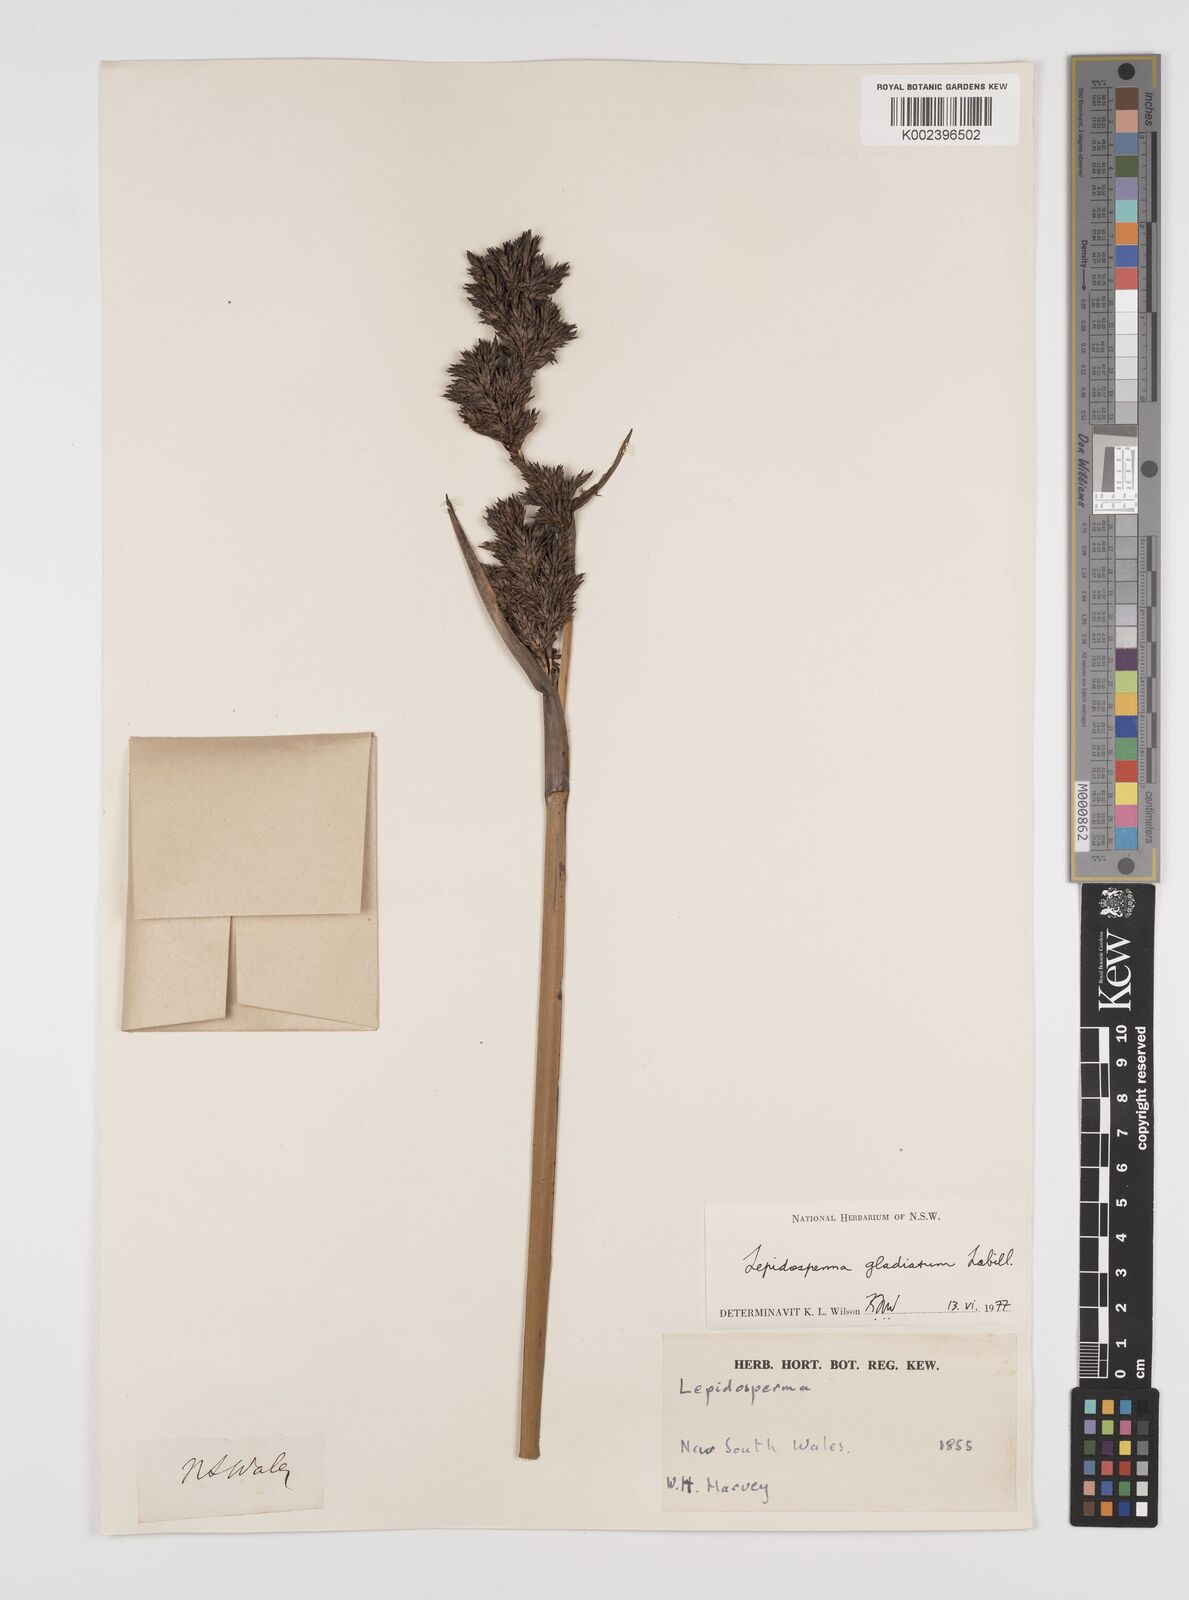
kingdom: Plantae
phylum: Tracheophyta
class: Liliopsida
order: Poales
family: Cyperaceae
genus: Lepidosperma
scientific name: Lepidosperma gladiatum
